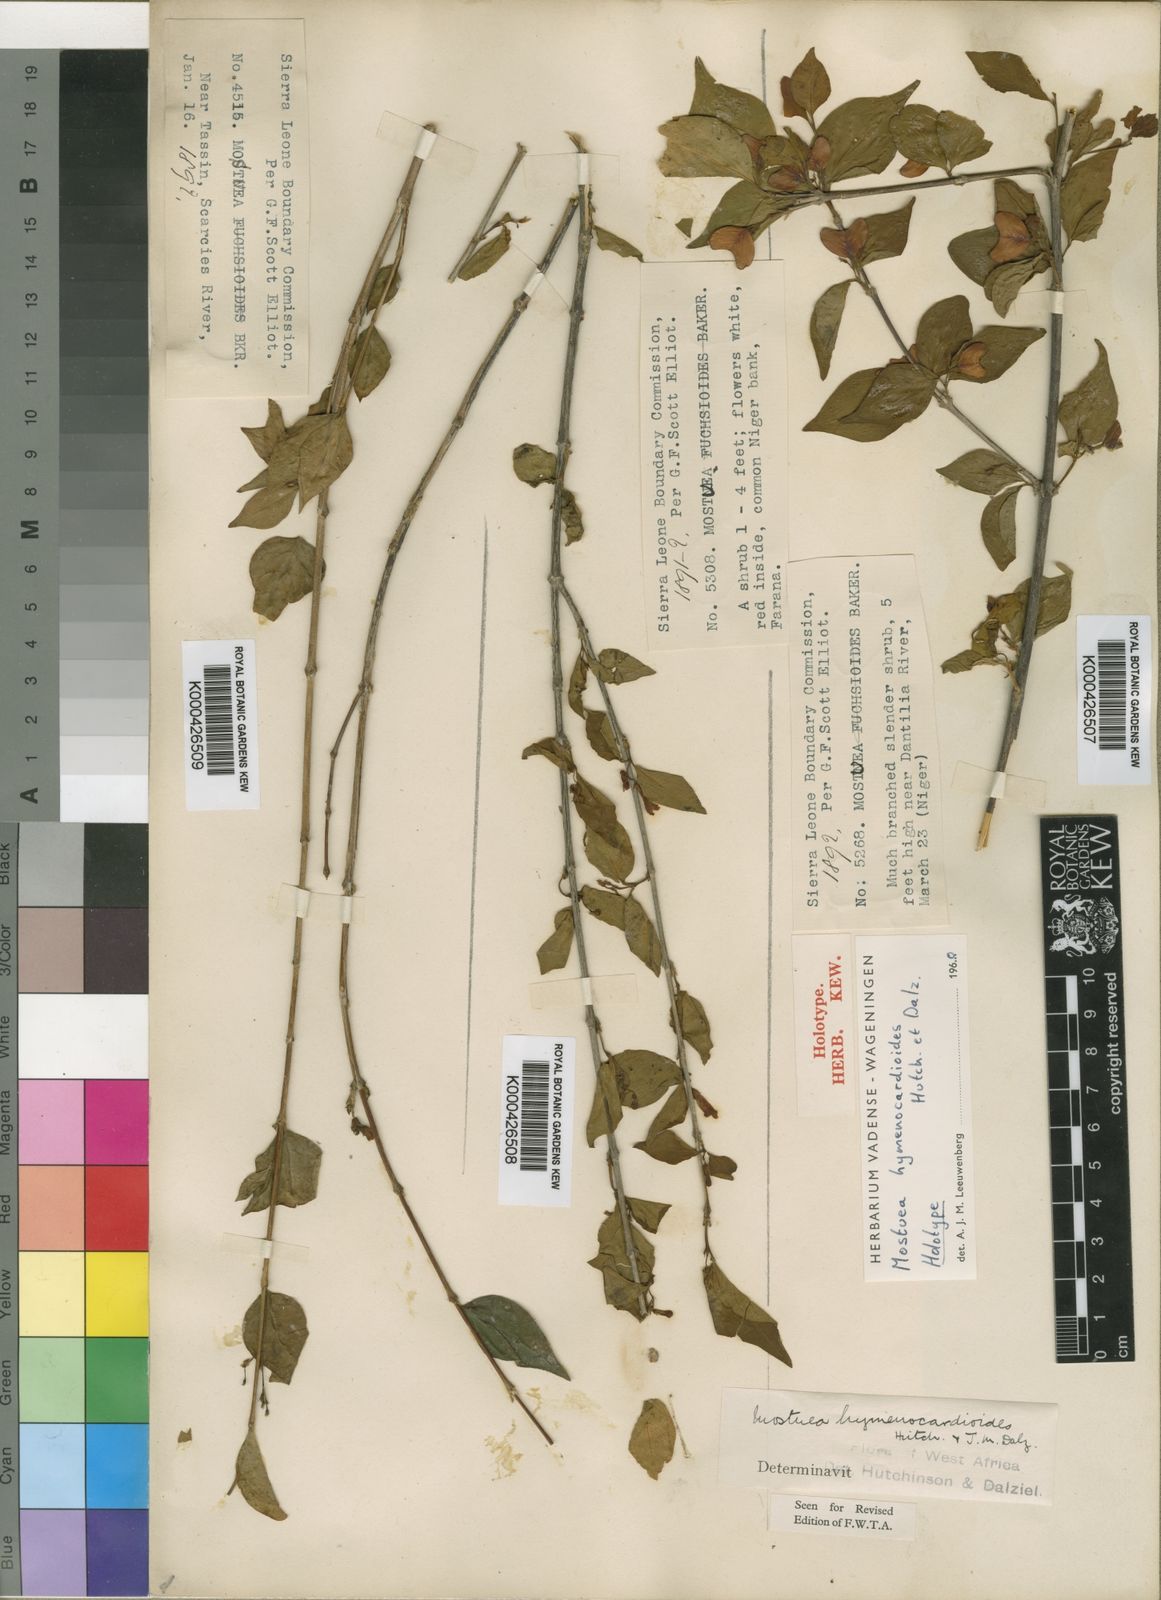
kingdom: Plantae
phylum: Tracheophyta
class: Magnoliopsida
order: Gentianales
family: Gelsemiaceae
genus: Mostuea
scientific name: Mostuea
